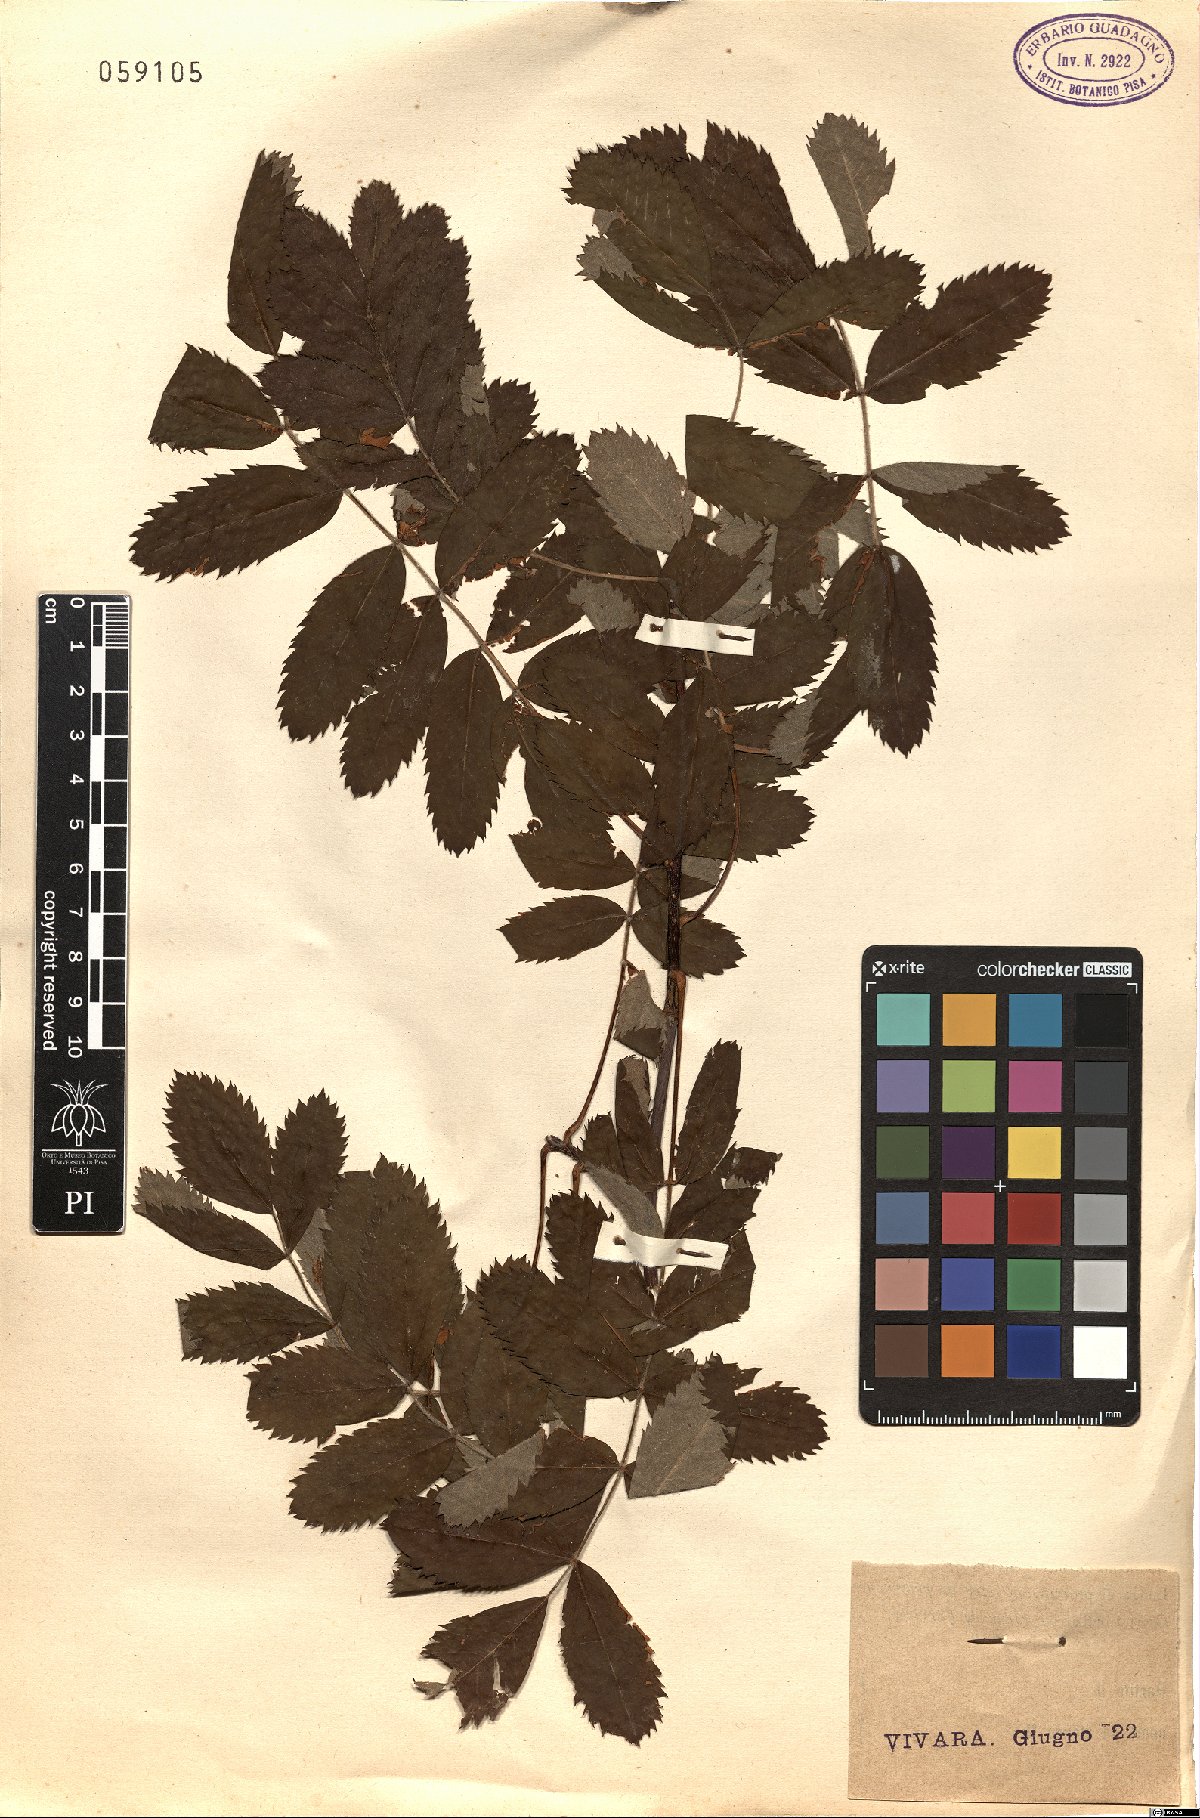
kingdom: Plantae
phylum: Tracheophyta
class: Magnoliopsida
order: Rosales
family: Rosaceae
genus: Cormus
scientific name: Cormus domestica
